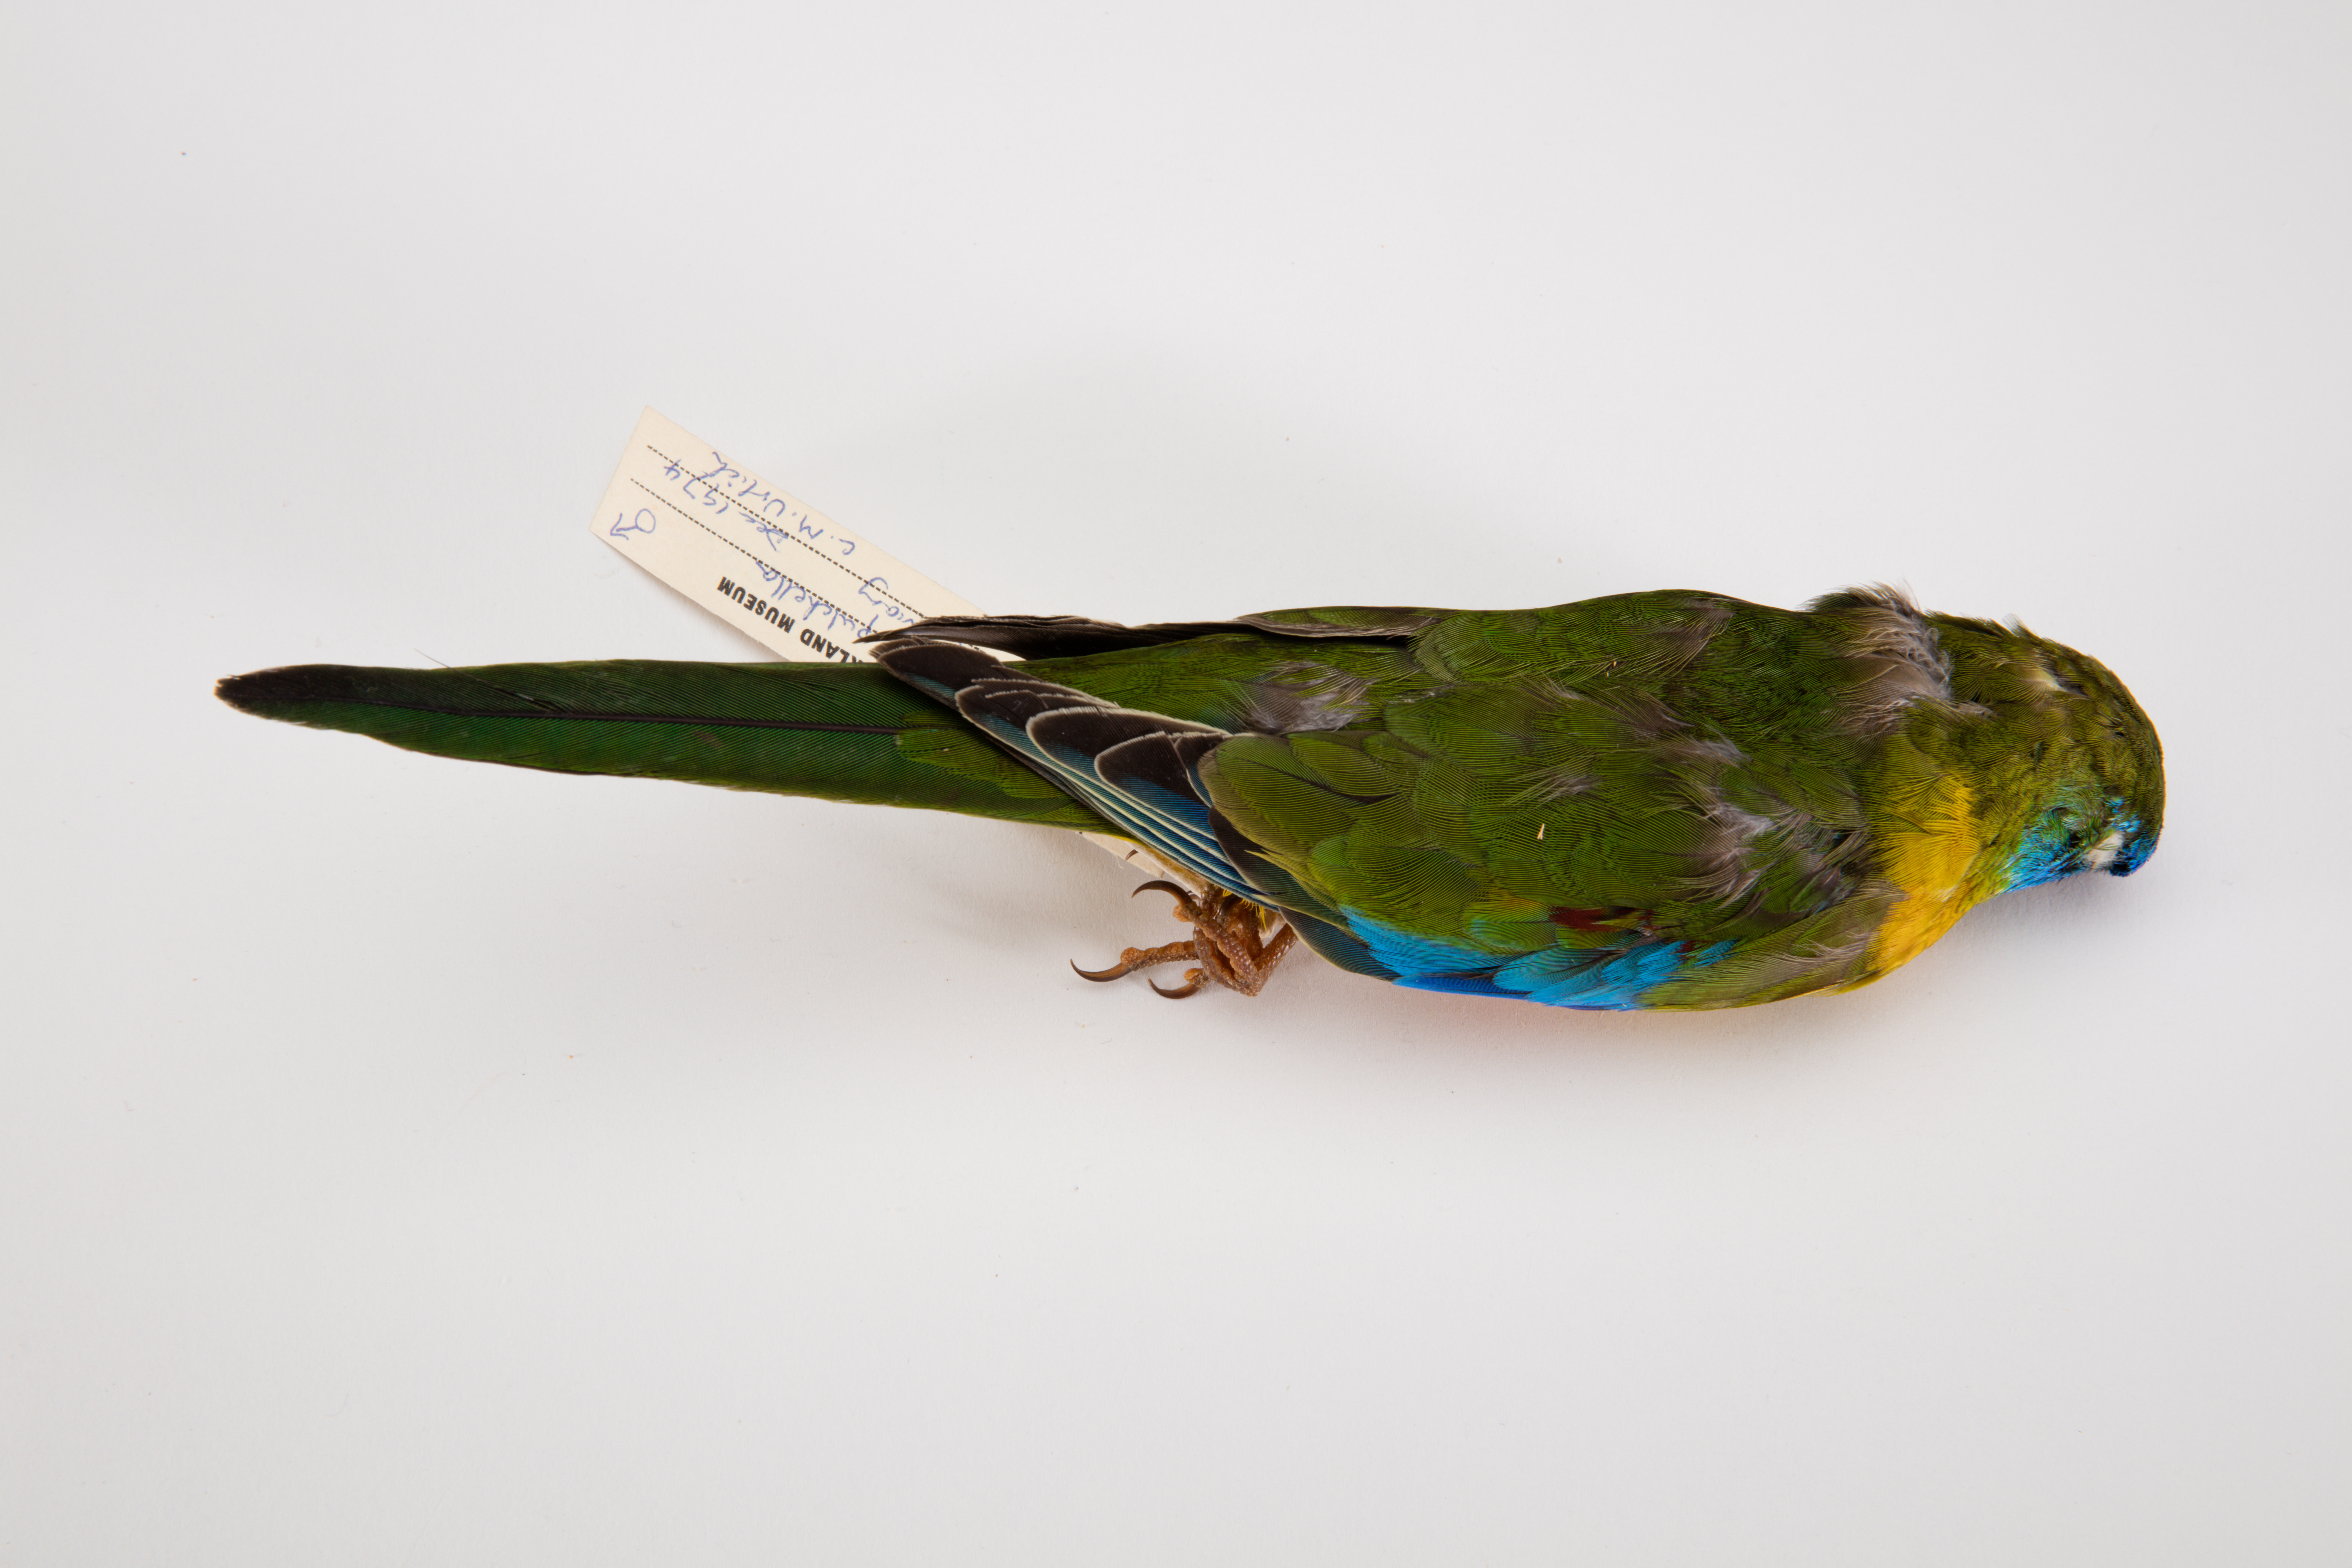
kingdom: Animalia
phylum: Chordata
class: Aves
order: Psittaciformes
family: Psittacidae
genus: Neophema
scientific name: Neophema pulchella
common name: Turquoise parrot
